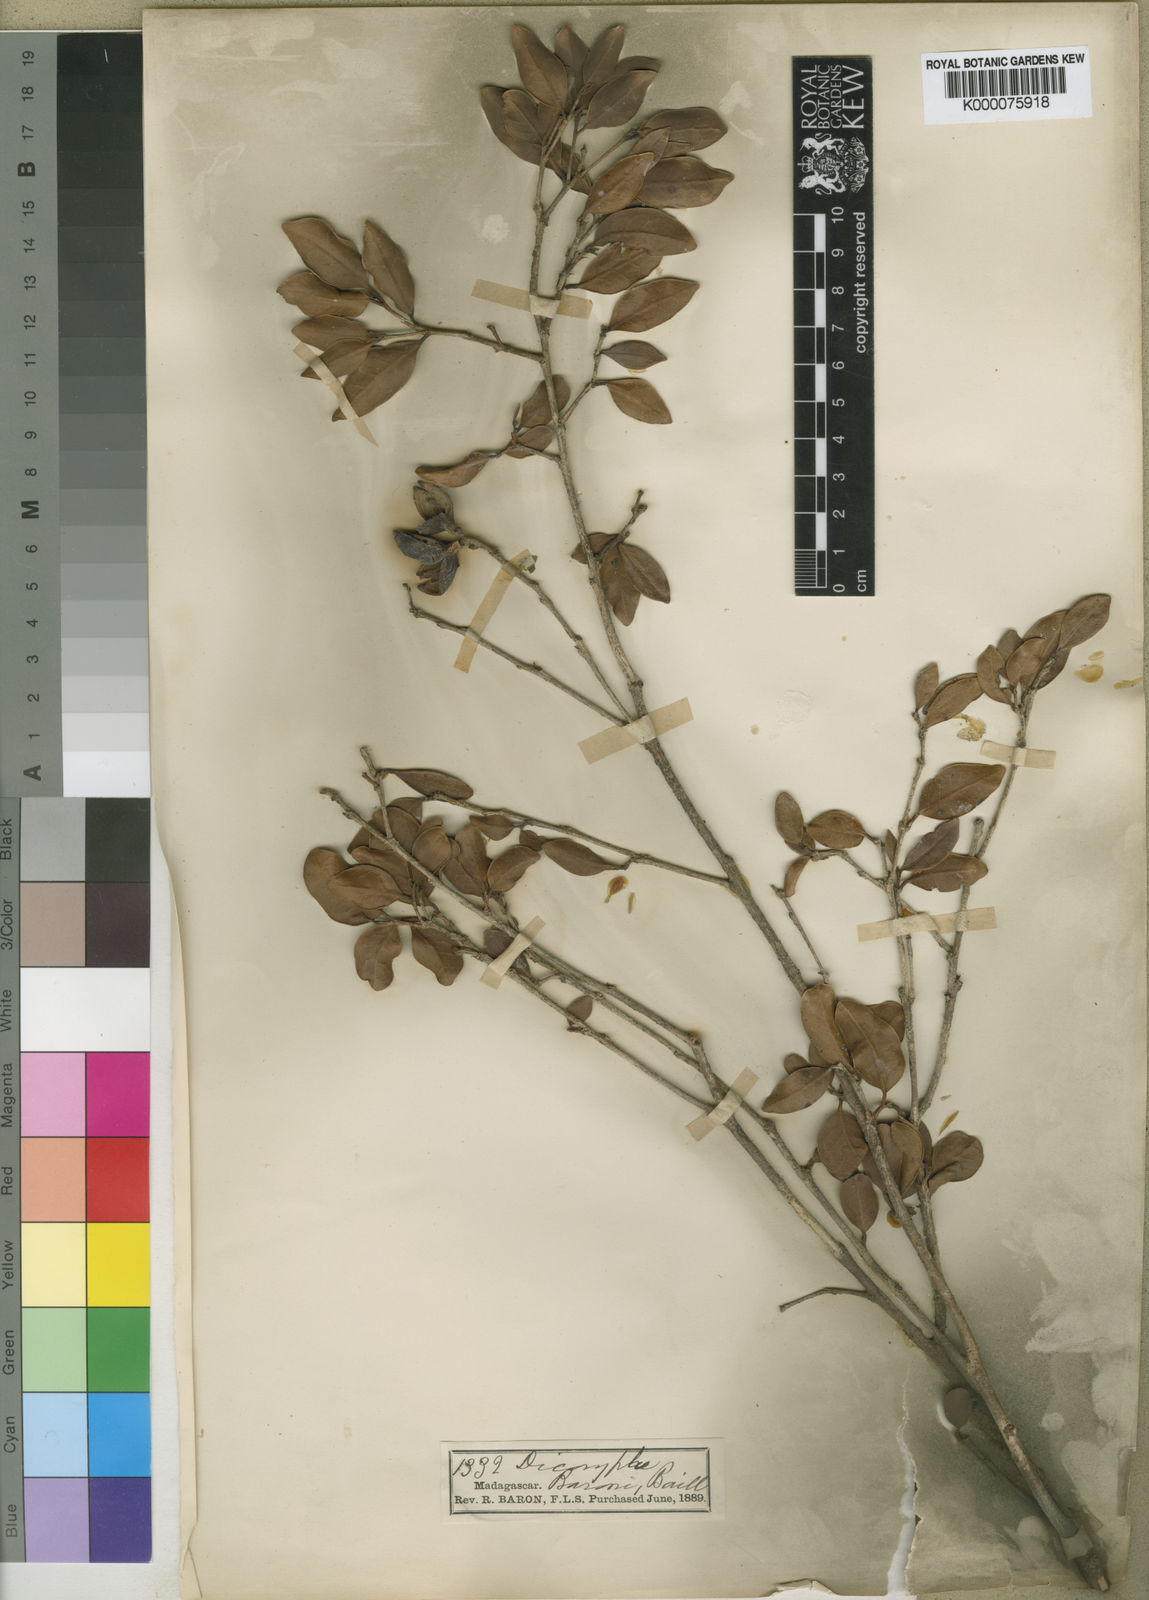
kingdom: Plantae
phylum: Tracheophyta
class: Magnoliopsida
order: Saxifragales
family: Hamamelidaceae
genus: Dicoryphe
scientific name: Dicoryphe
